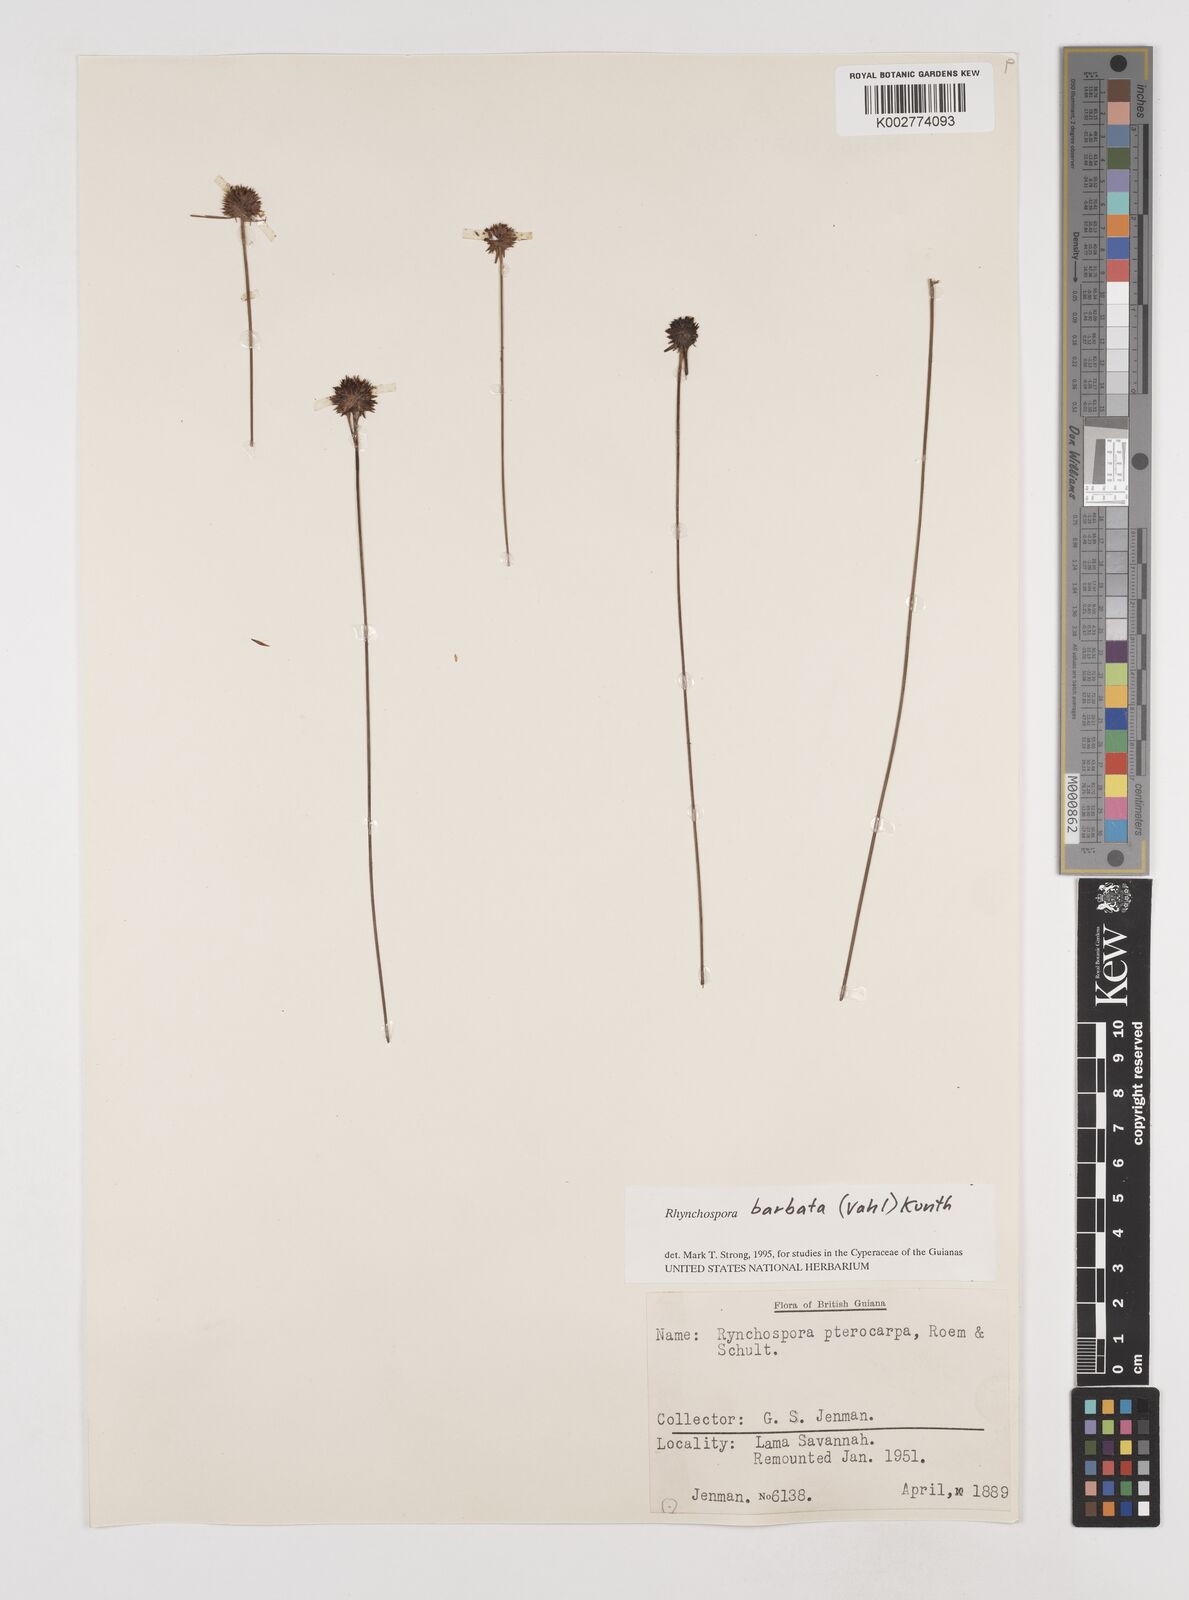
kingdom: Plantae
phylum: Tracheophyta
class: Liliopsida
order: Poales
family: Cyperaceae
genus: Rhynchospora
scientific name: Rhynchospora barbata
